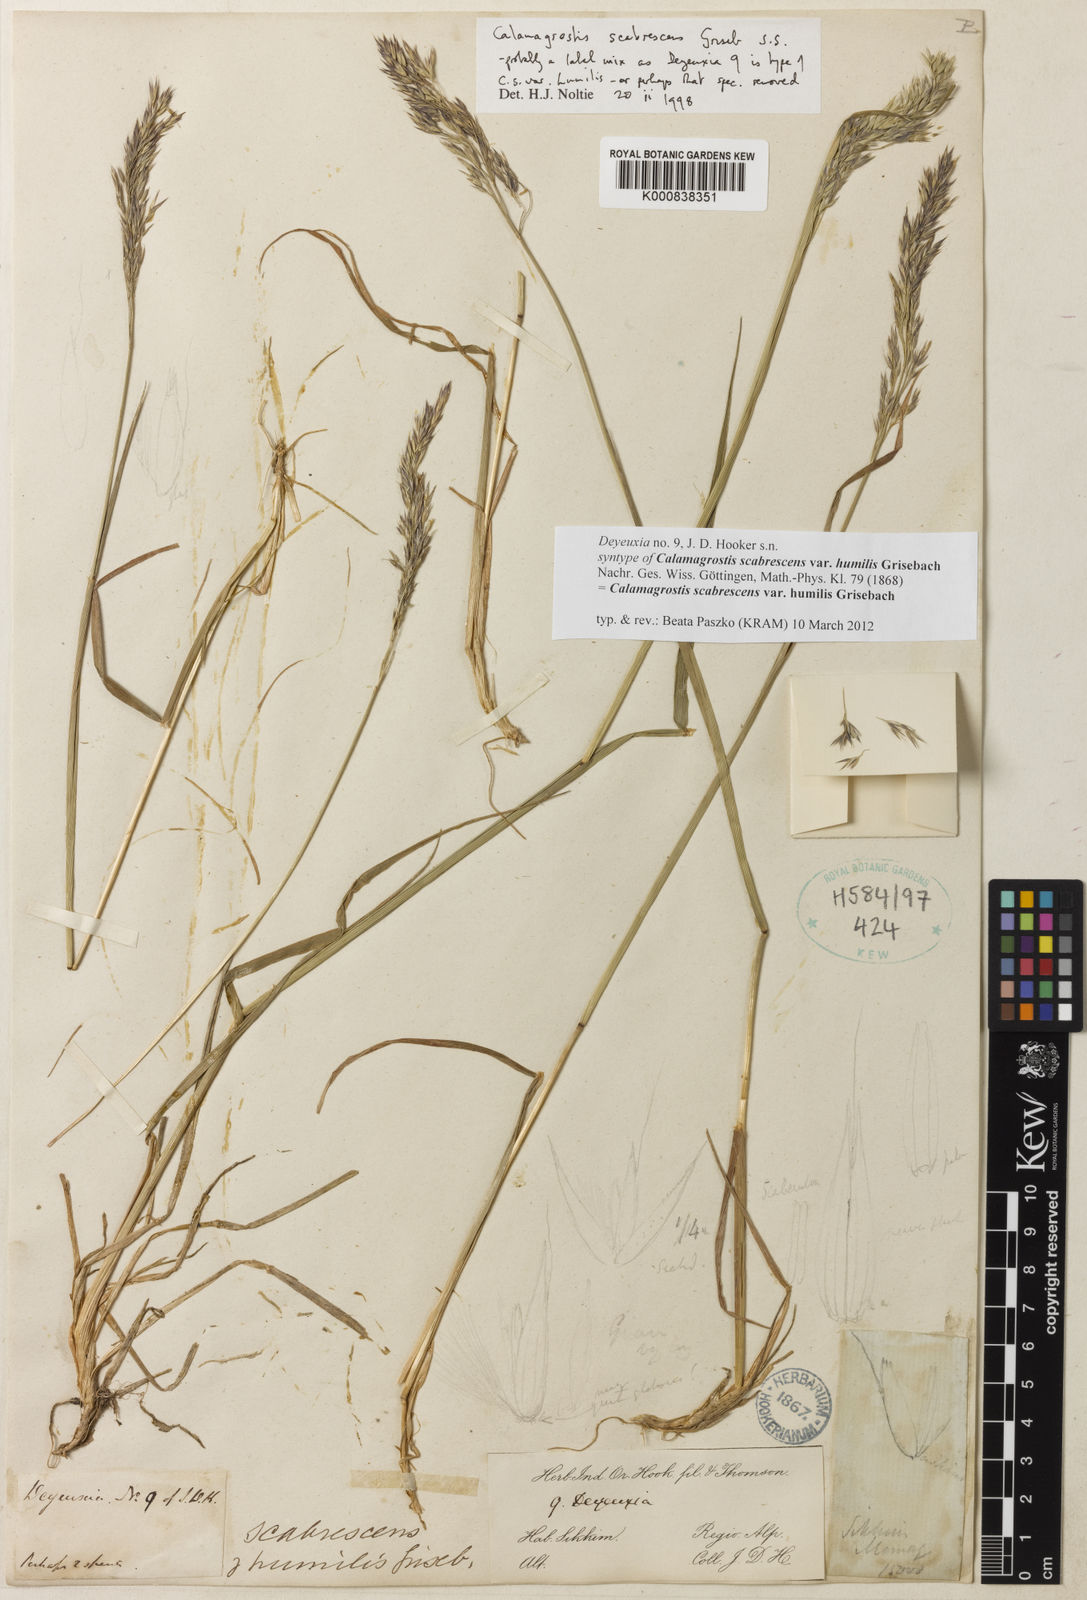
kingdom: Plantae
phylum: Tracheophyta
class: Liliopsida
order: Poales
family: Poaceae
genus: Calamagrostis
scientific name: Calamagrostis filiformis
